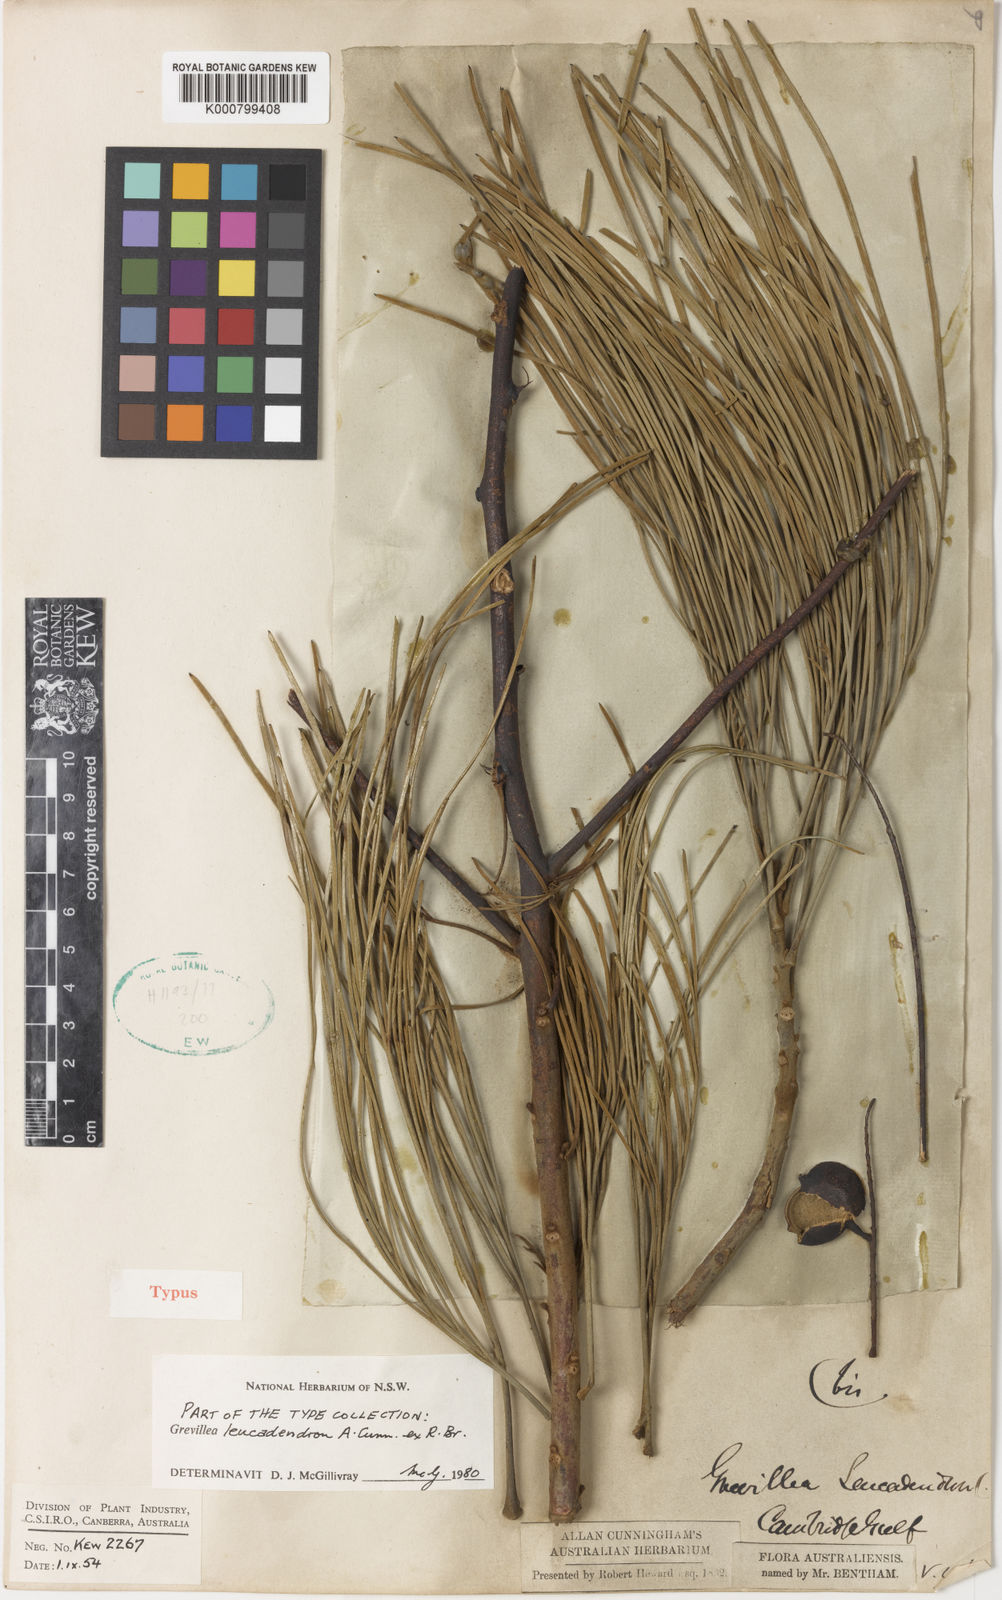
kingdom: Plantae
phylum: Tracheophyta
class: Magnoliopsida
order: Proteales
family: Proteaceae
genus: Grevillea
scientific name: Grevillea pyramidalis
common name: Caustictree
